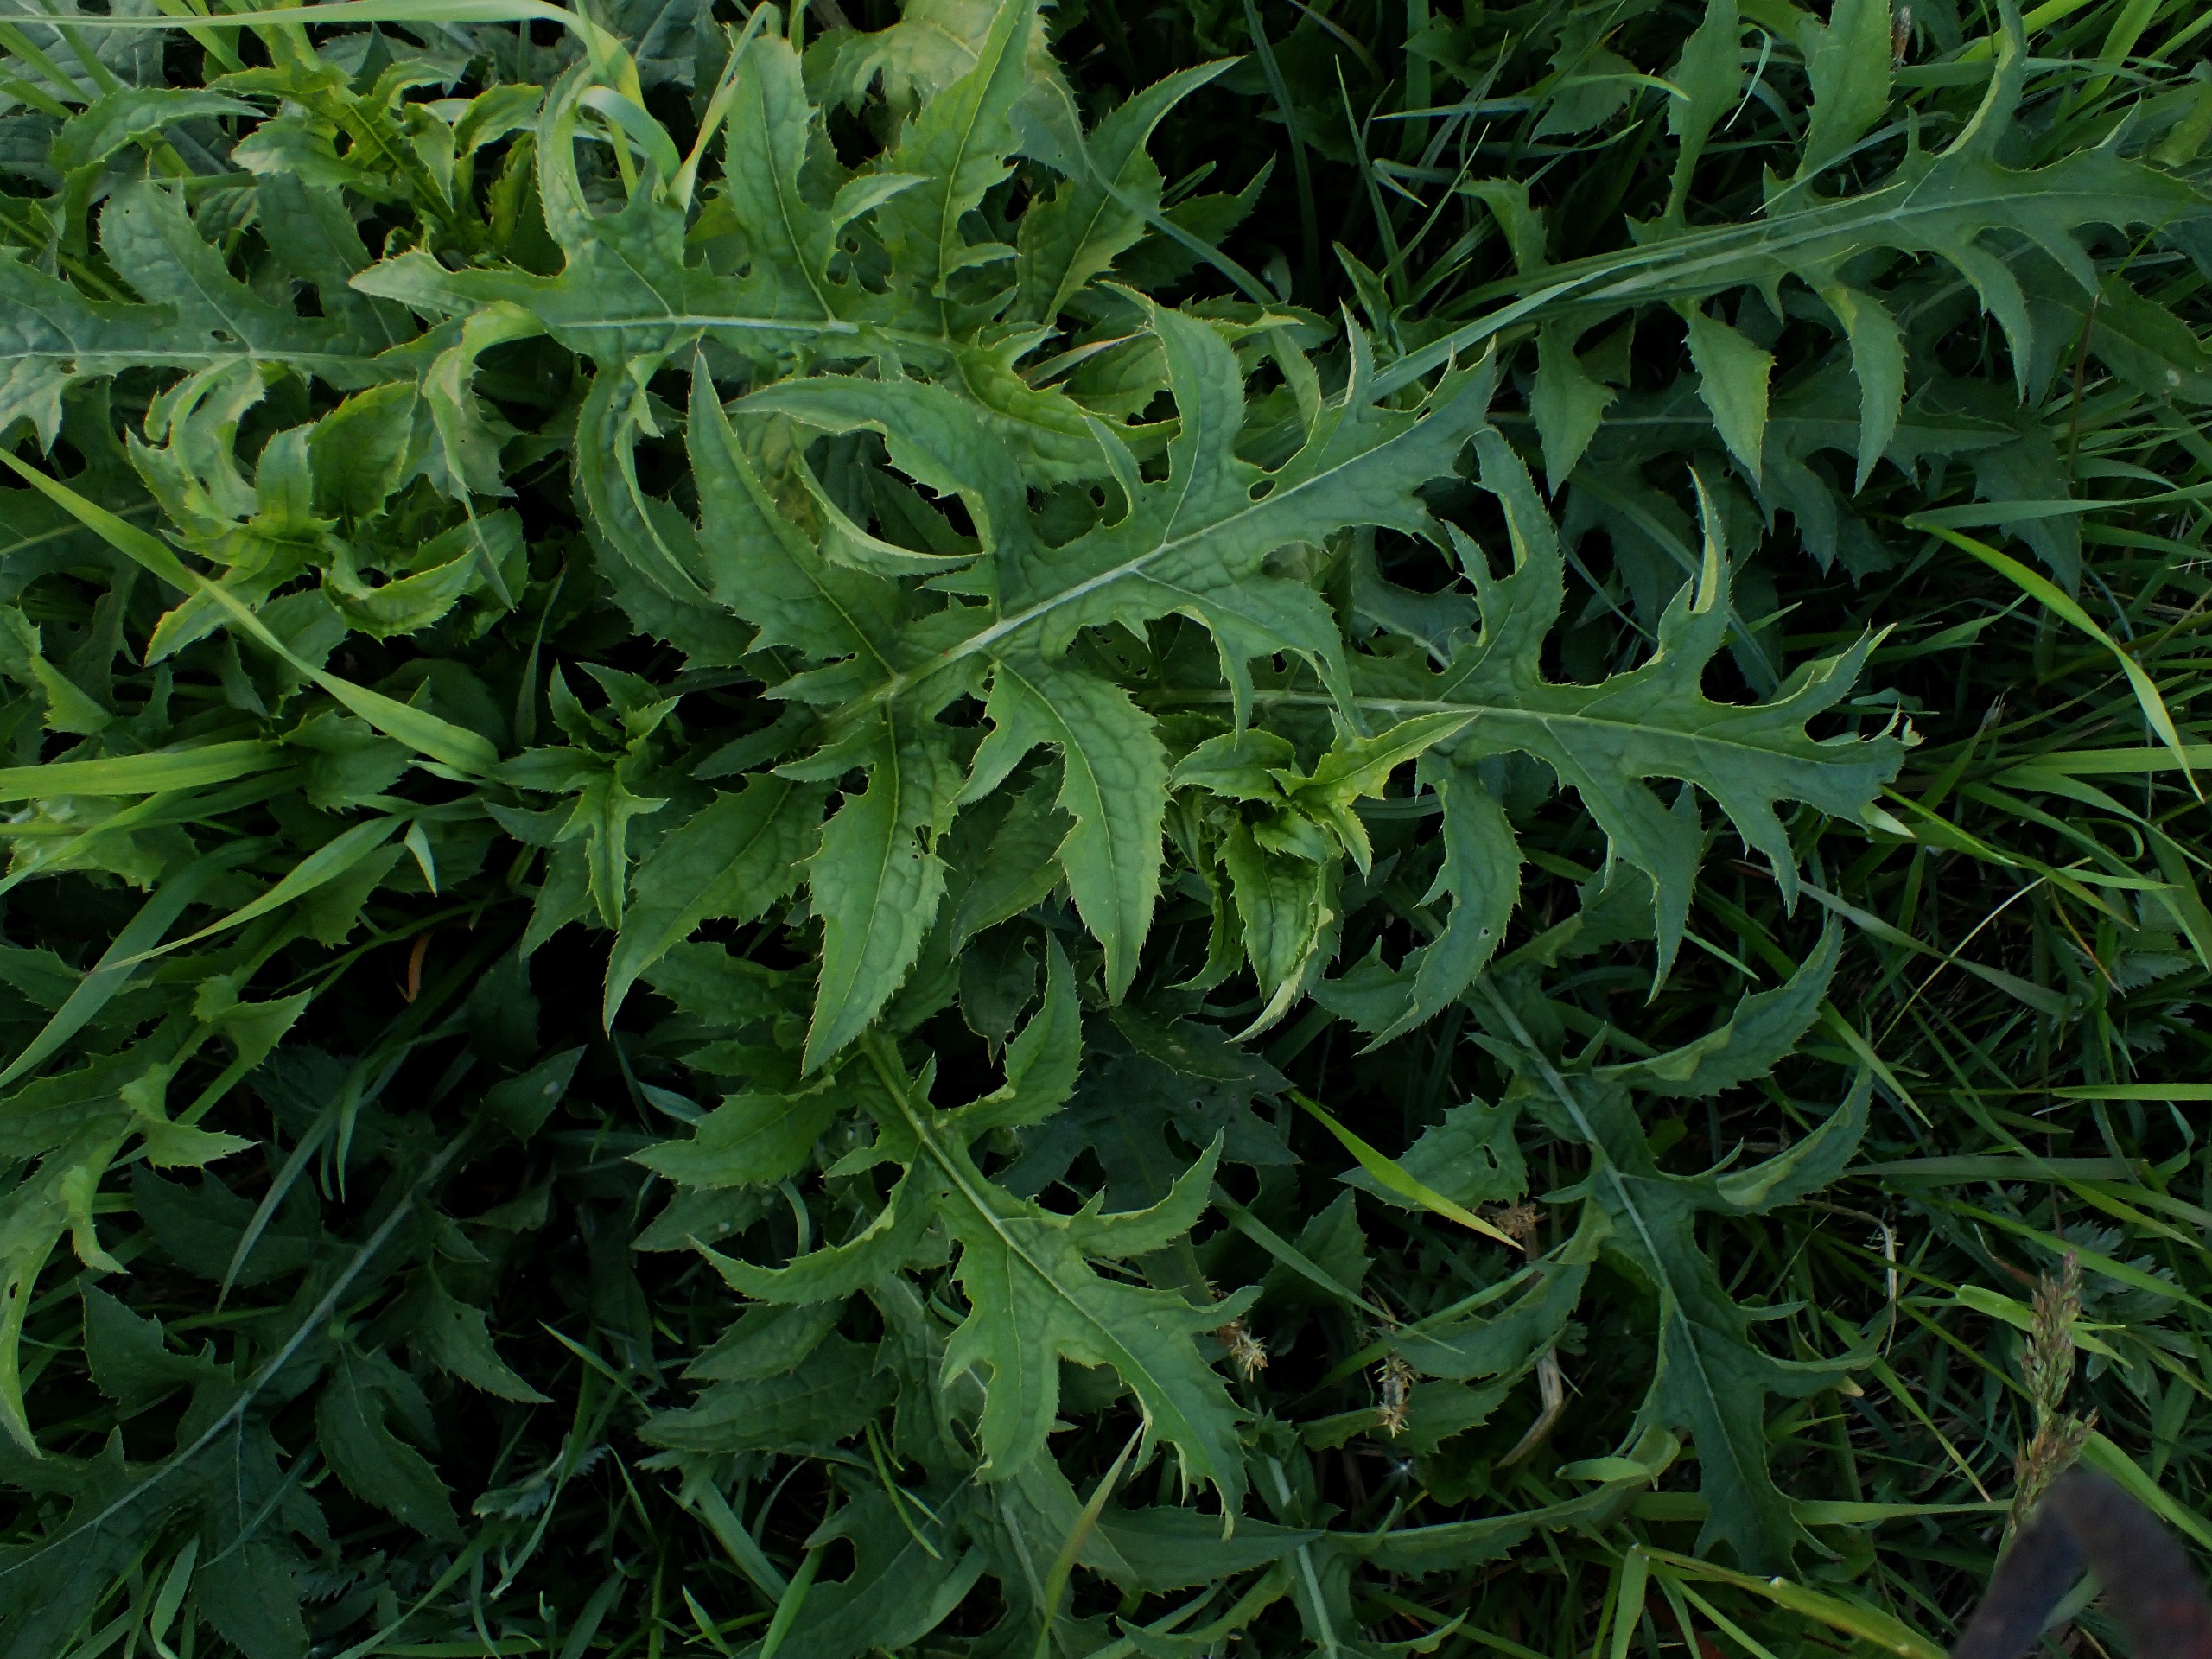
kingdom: Plantae
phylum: Tracheophyta
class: Magnoliopsida
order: Asterales
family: Asteraceae
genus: Cirsium
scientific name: Cirsium oleraceum
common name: Kål-tidsel
